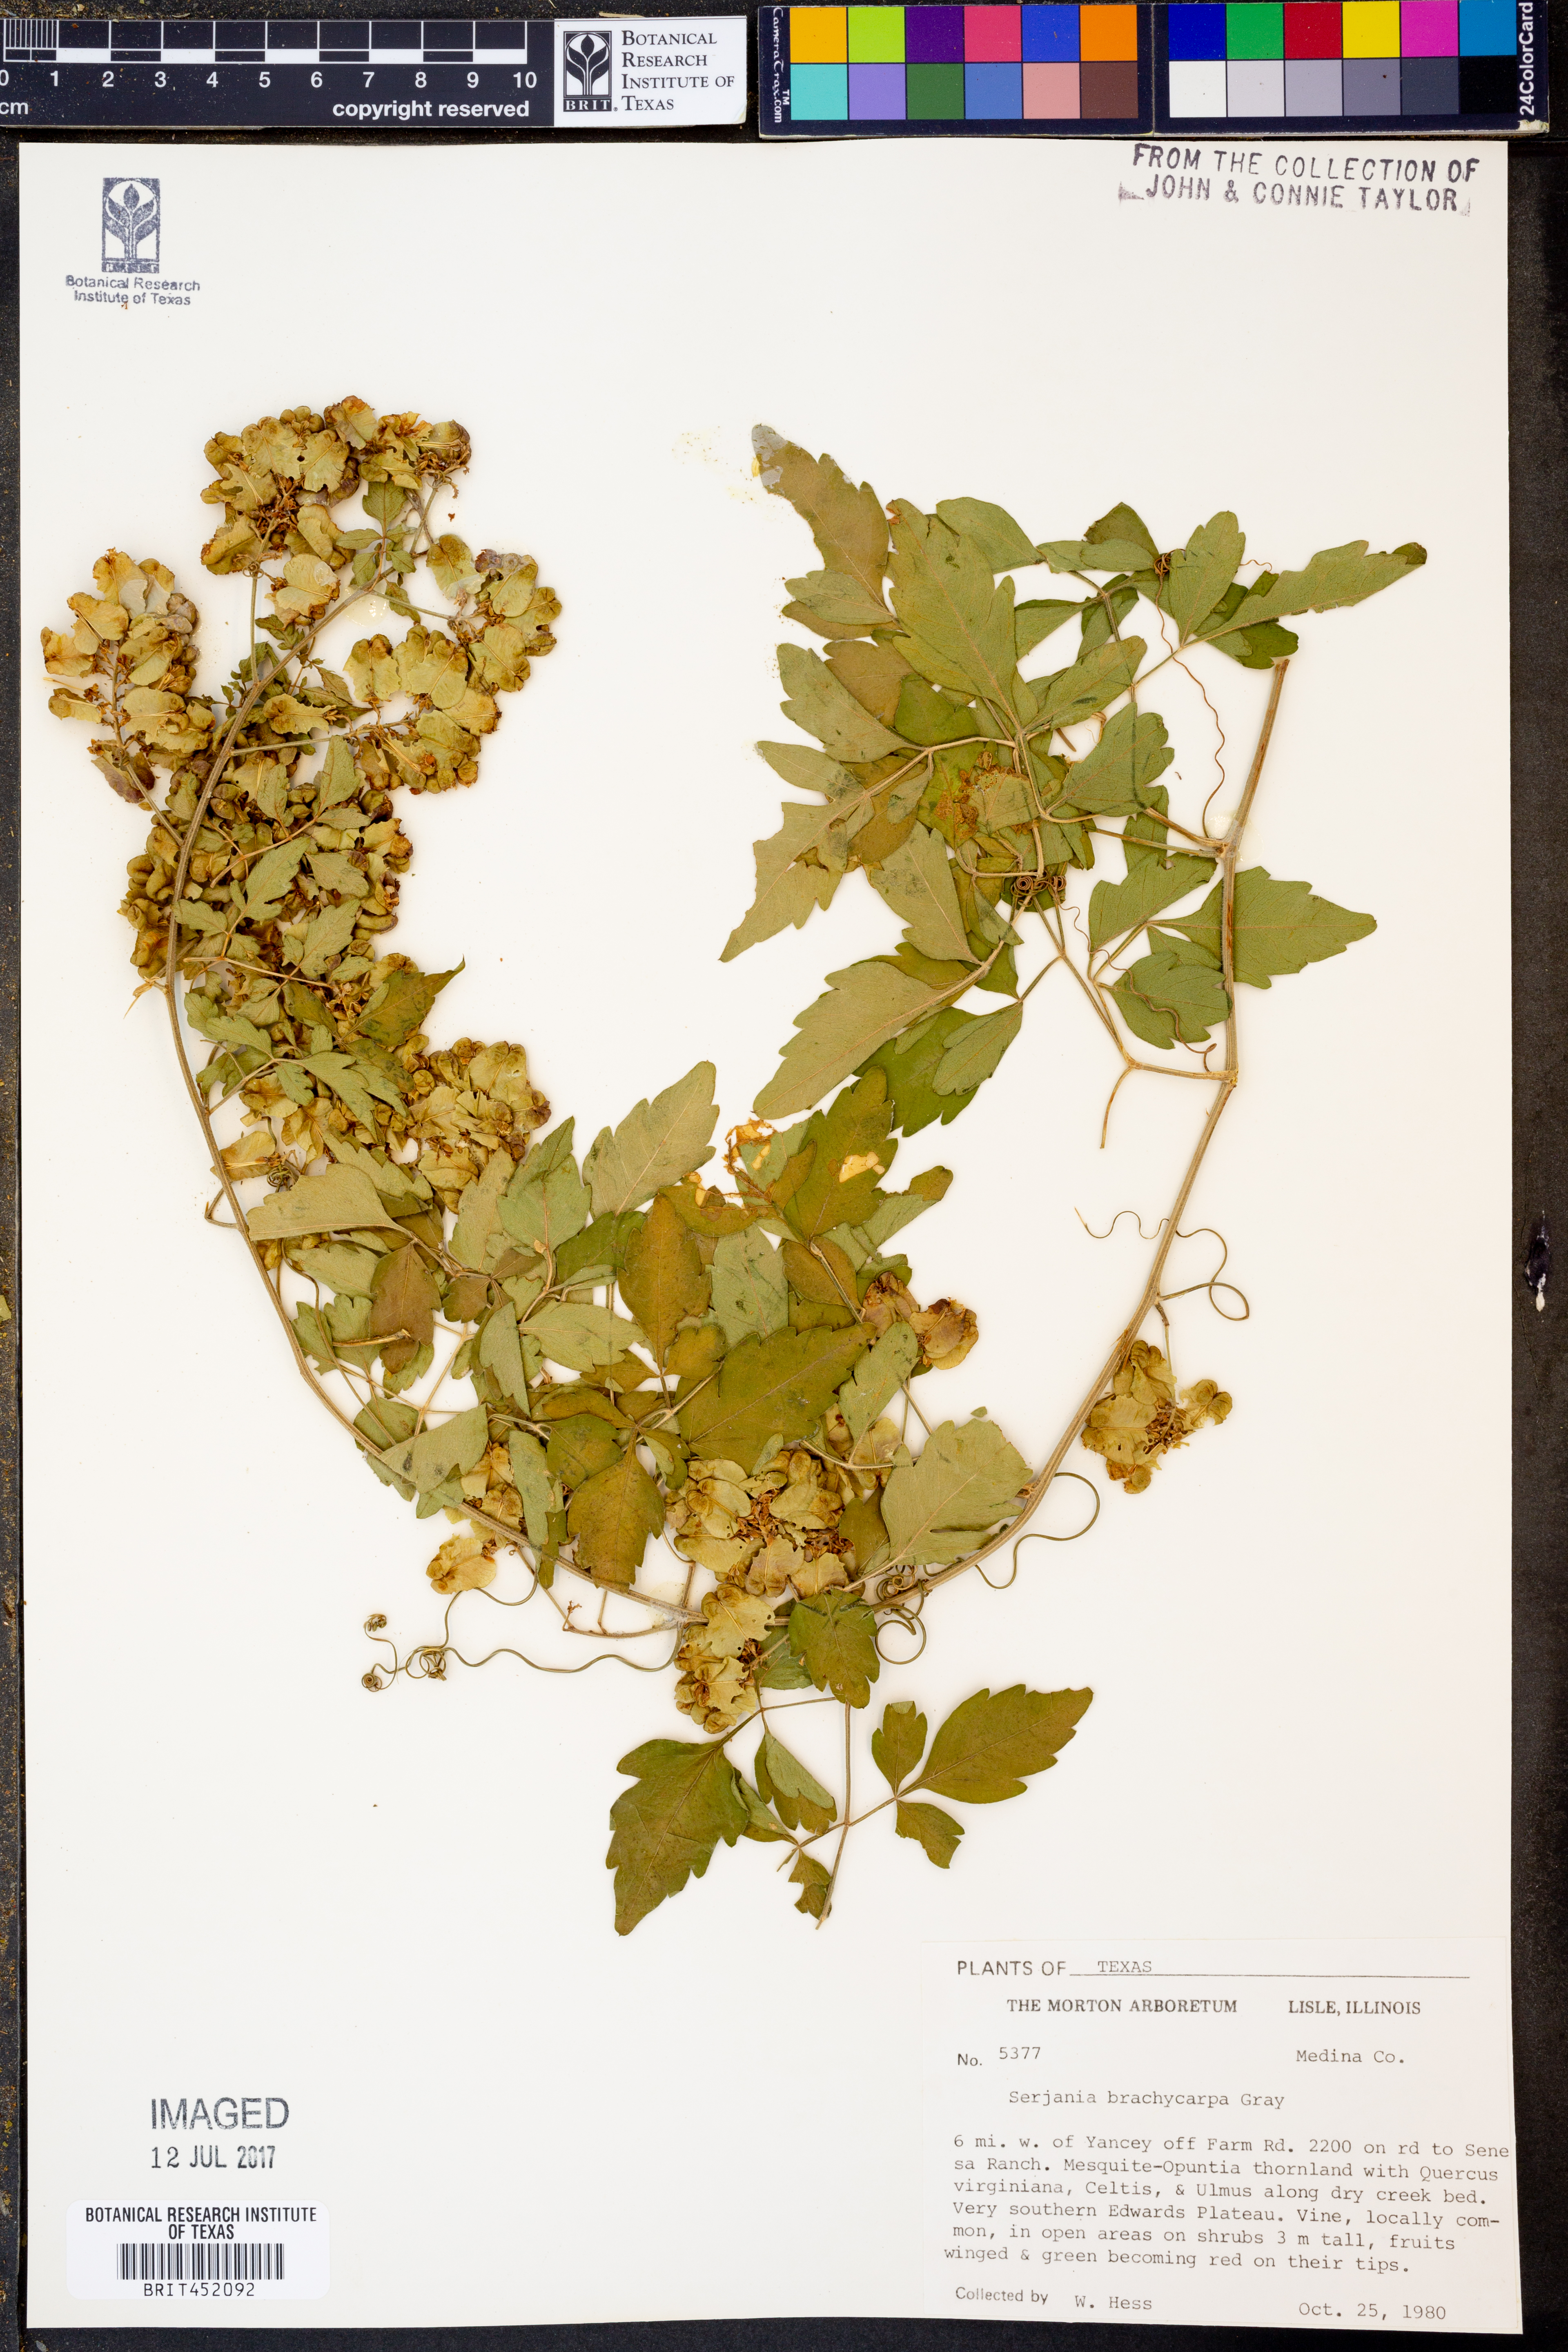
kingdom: Plantae
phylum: Tracheophyta
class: Magnoliopsida
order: Sapindales
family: Sapindaceae
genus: Serjania
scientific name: Serjania brachycarpa
